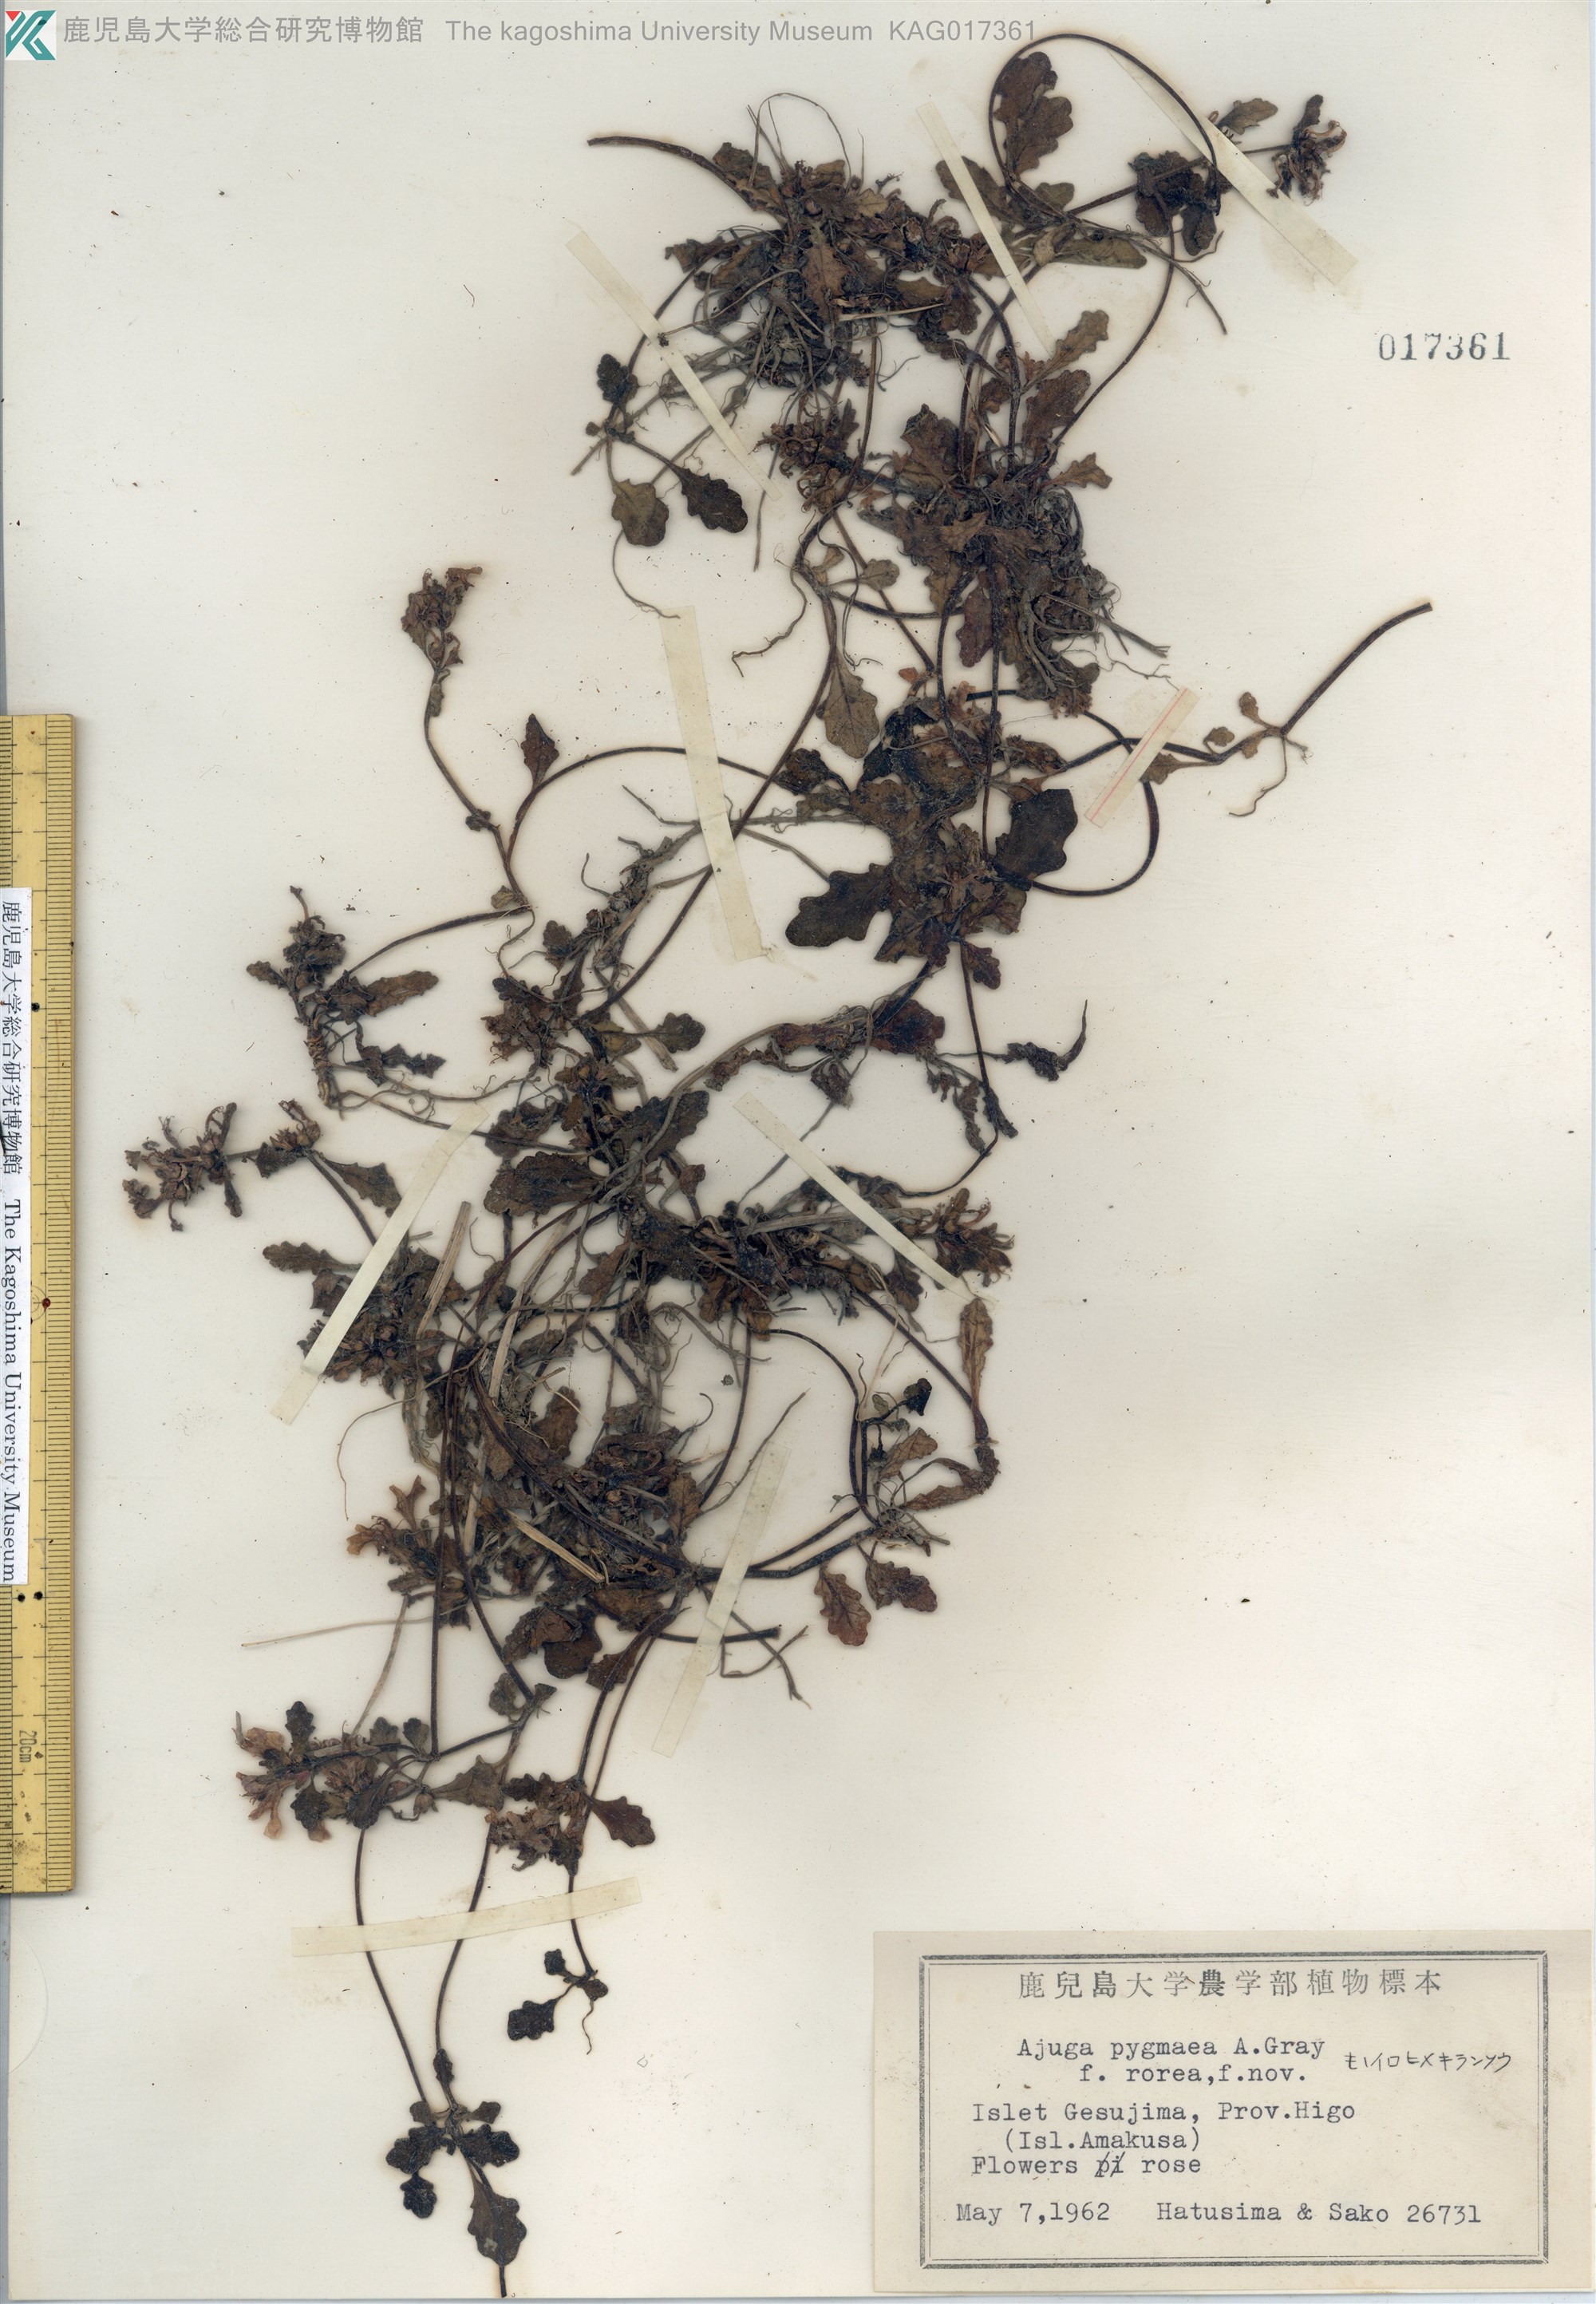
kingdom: Plantae
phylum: Tracheophyta
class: Magnoliopsida
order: Lamiales
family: Lamiaceae
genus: Ajuga
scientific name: Ajuga pygmaea
